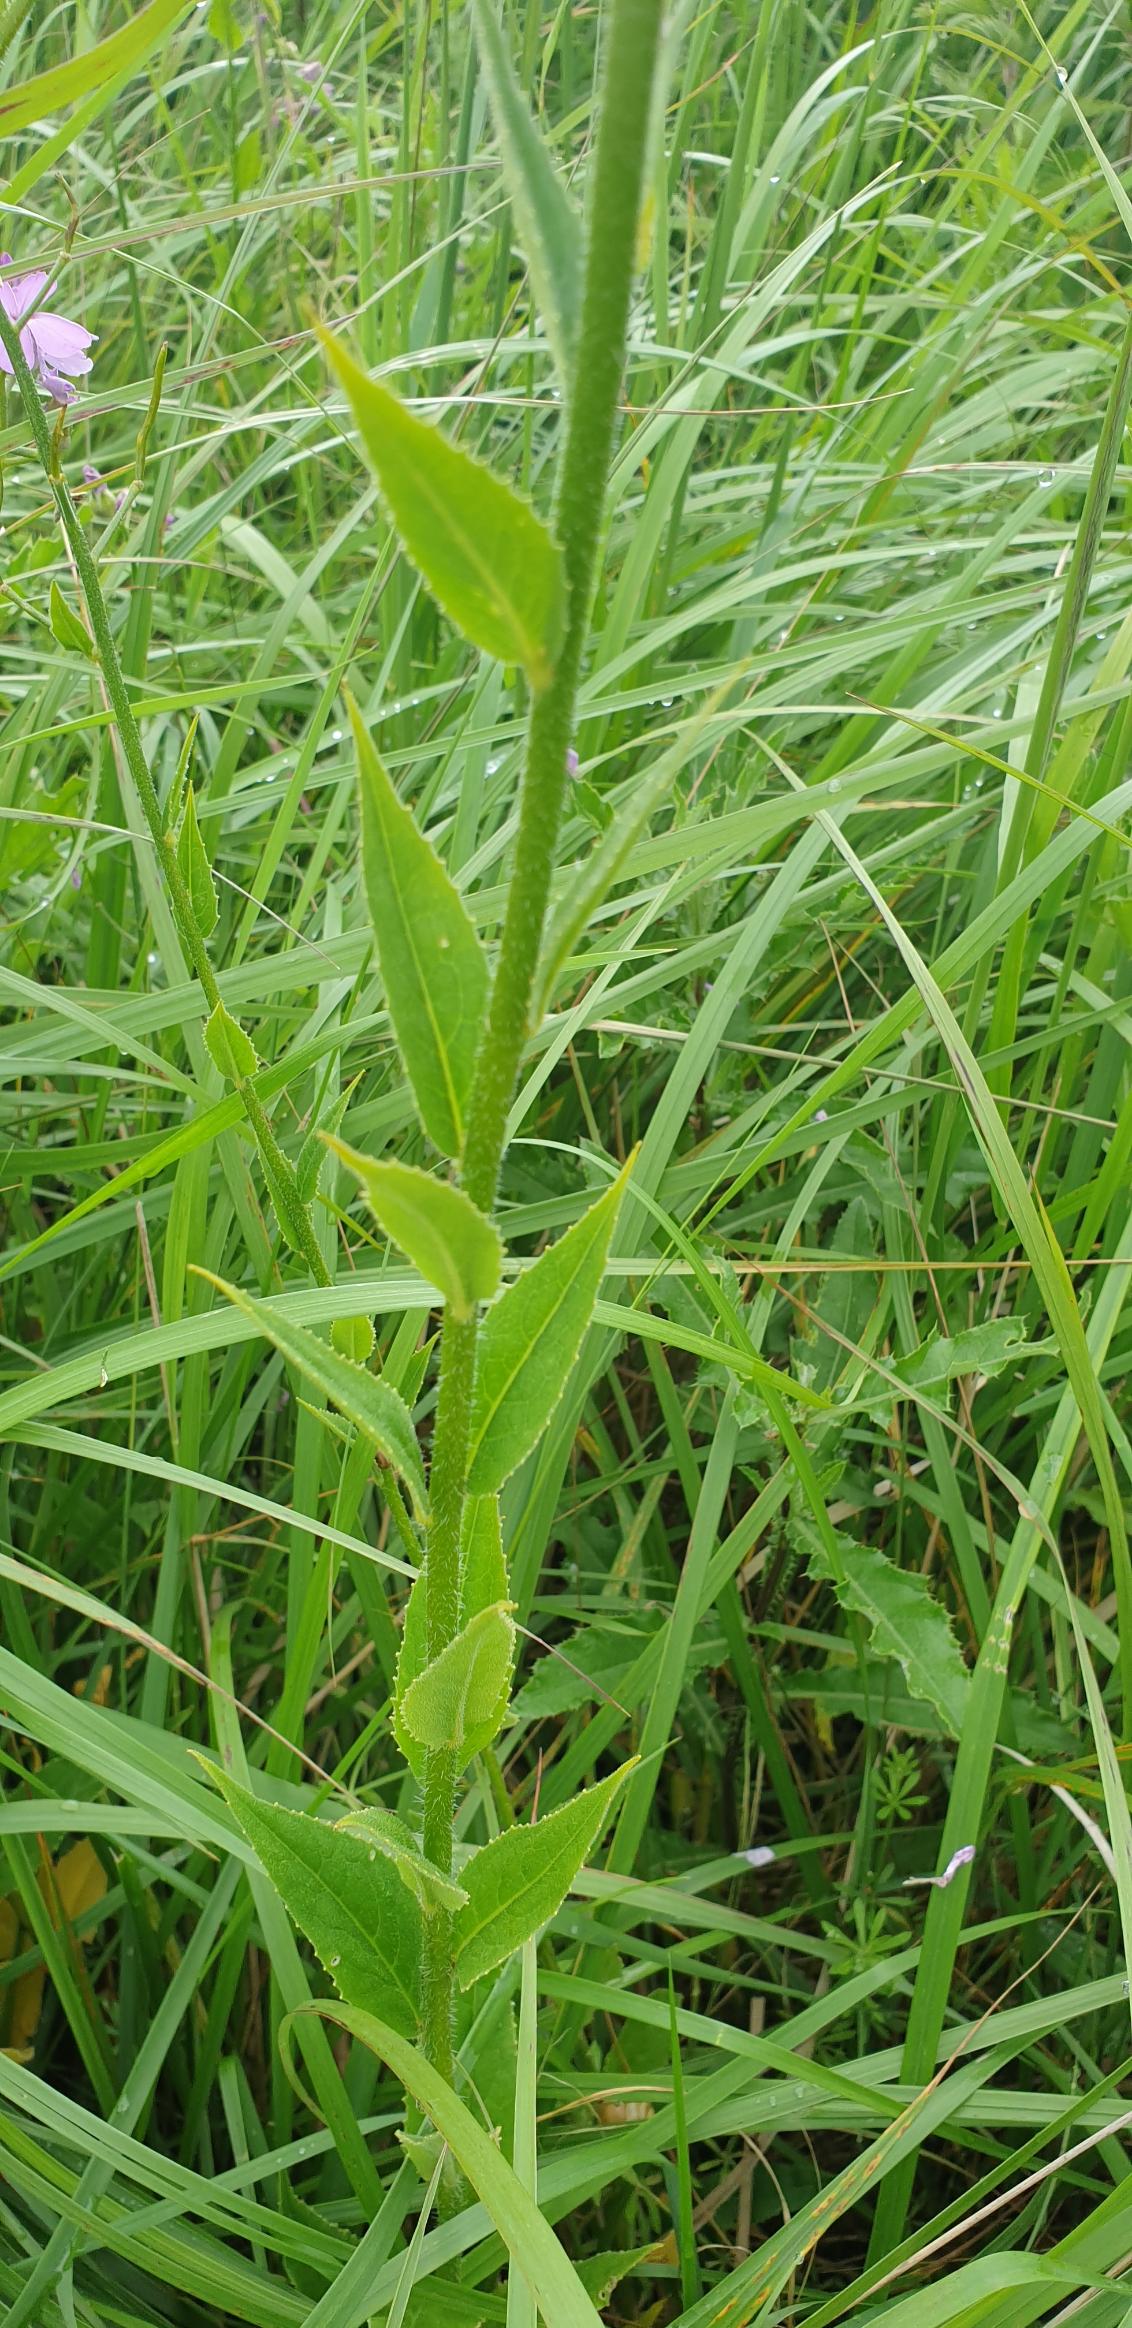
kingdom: Plantae
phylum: Tracheophyta
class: Magnoliopsida
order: Brassicales
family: Brassicaceae
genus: Hesperis
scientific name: Hesperis matronalis
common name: Aftenstjerne
